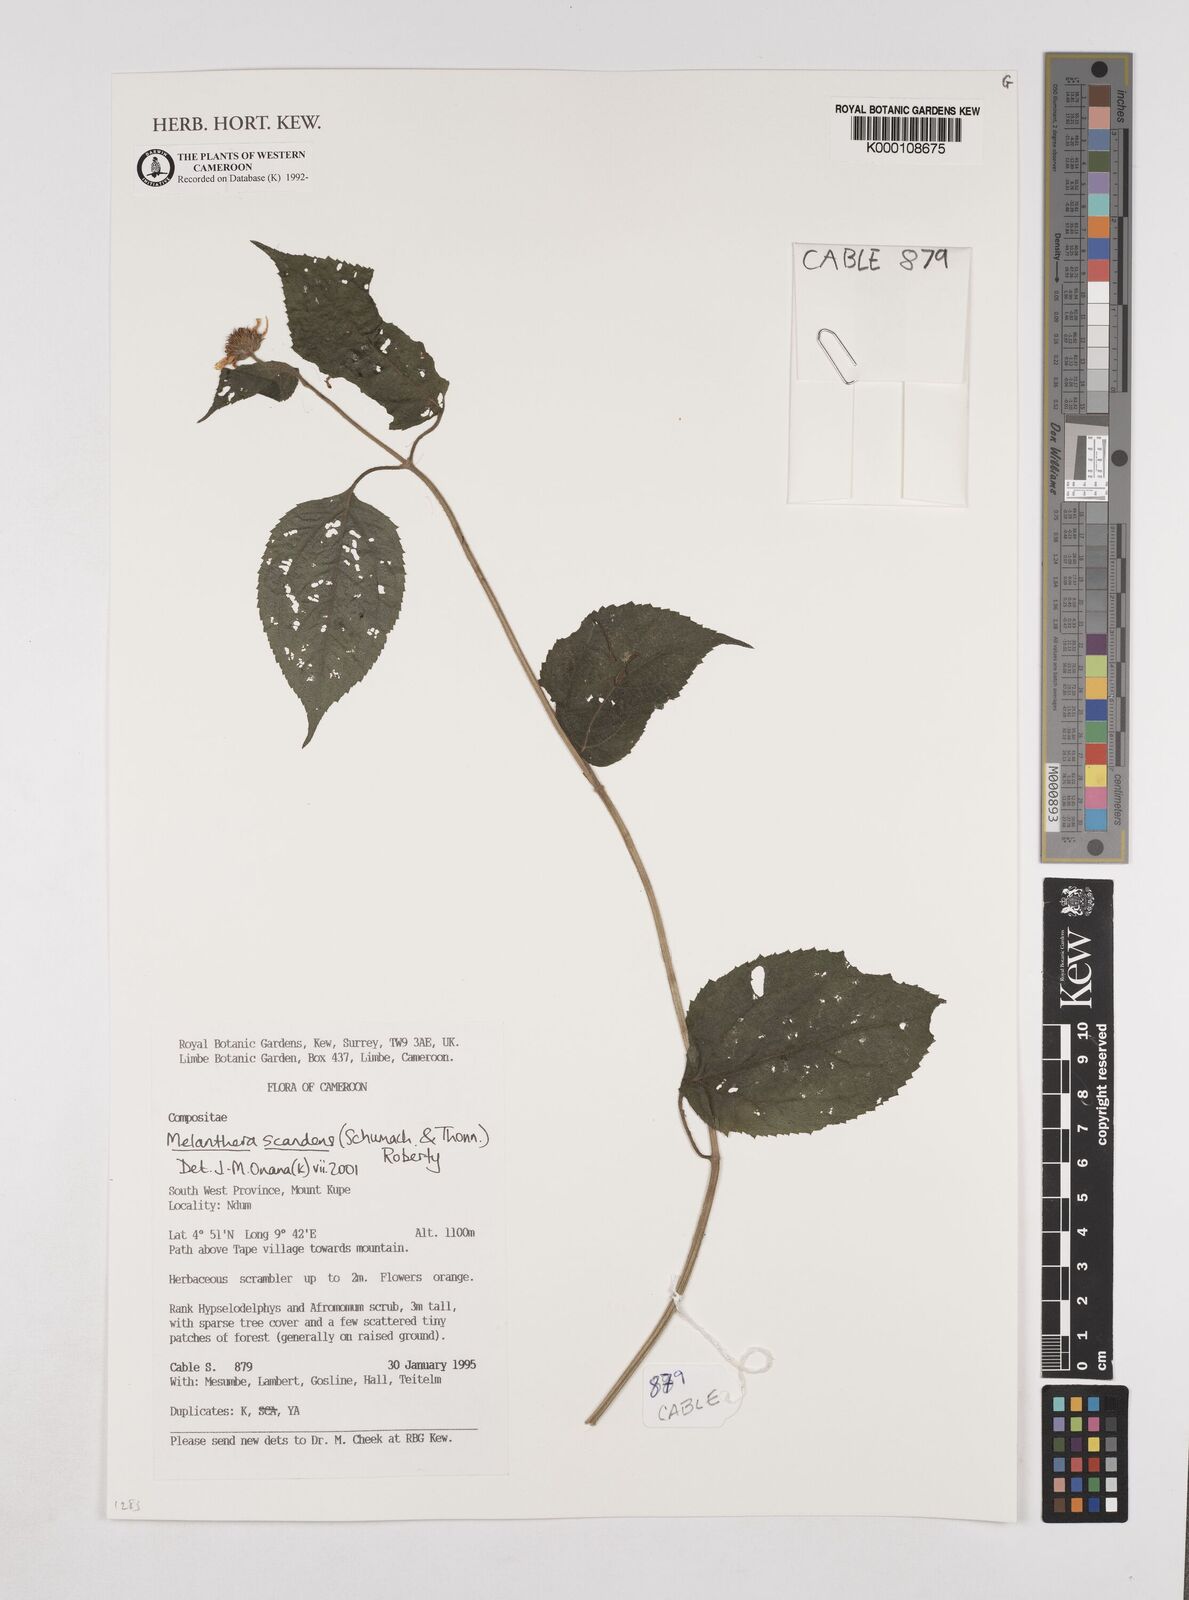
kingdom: Plantae
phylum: Tracheophyta
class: Magnoliopsida
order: Asterales
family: Asteraceae
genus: Melanthera
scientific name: Melanthera
